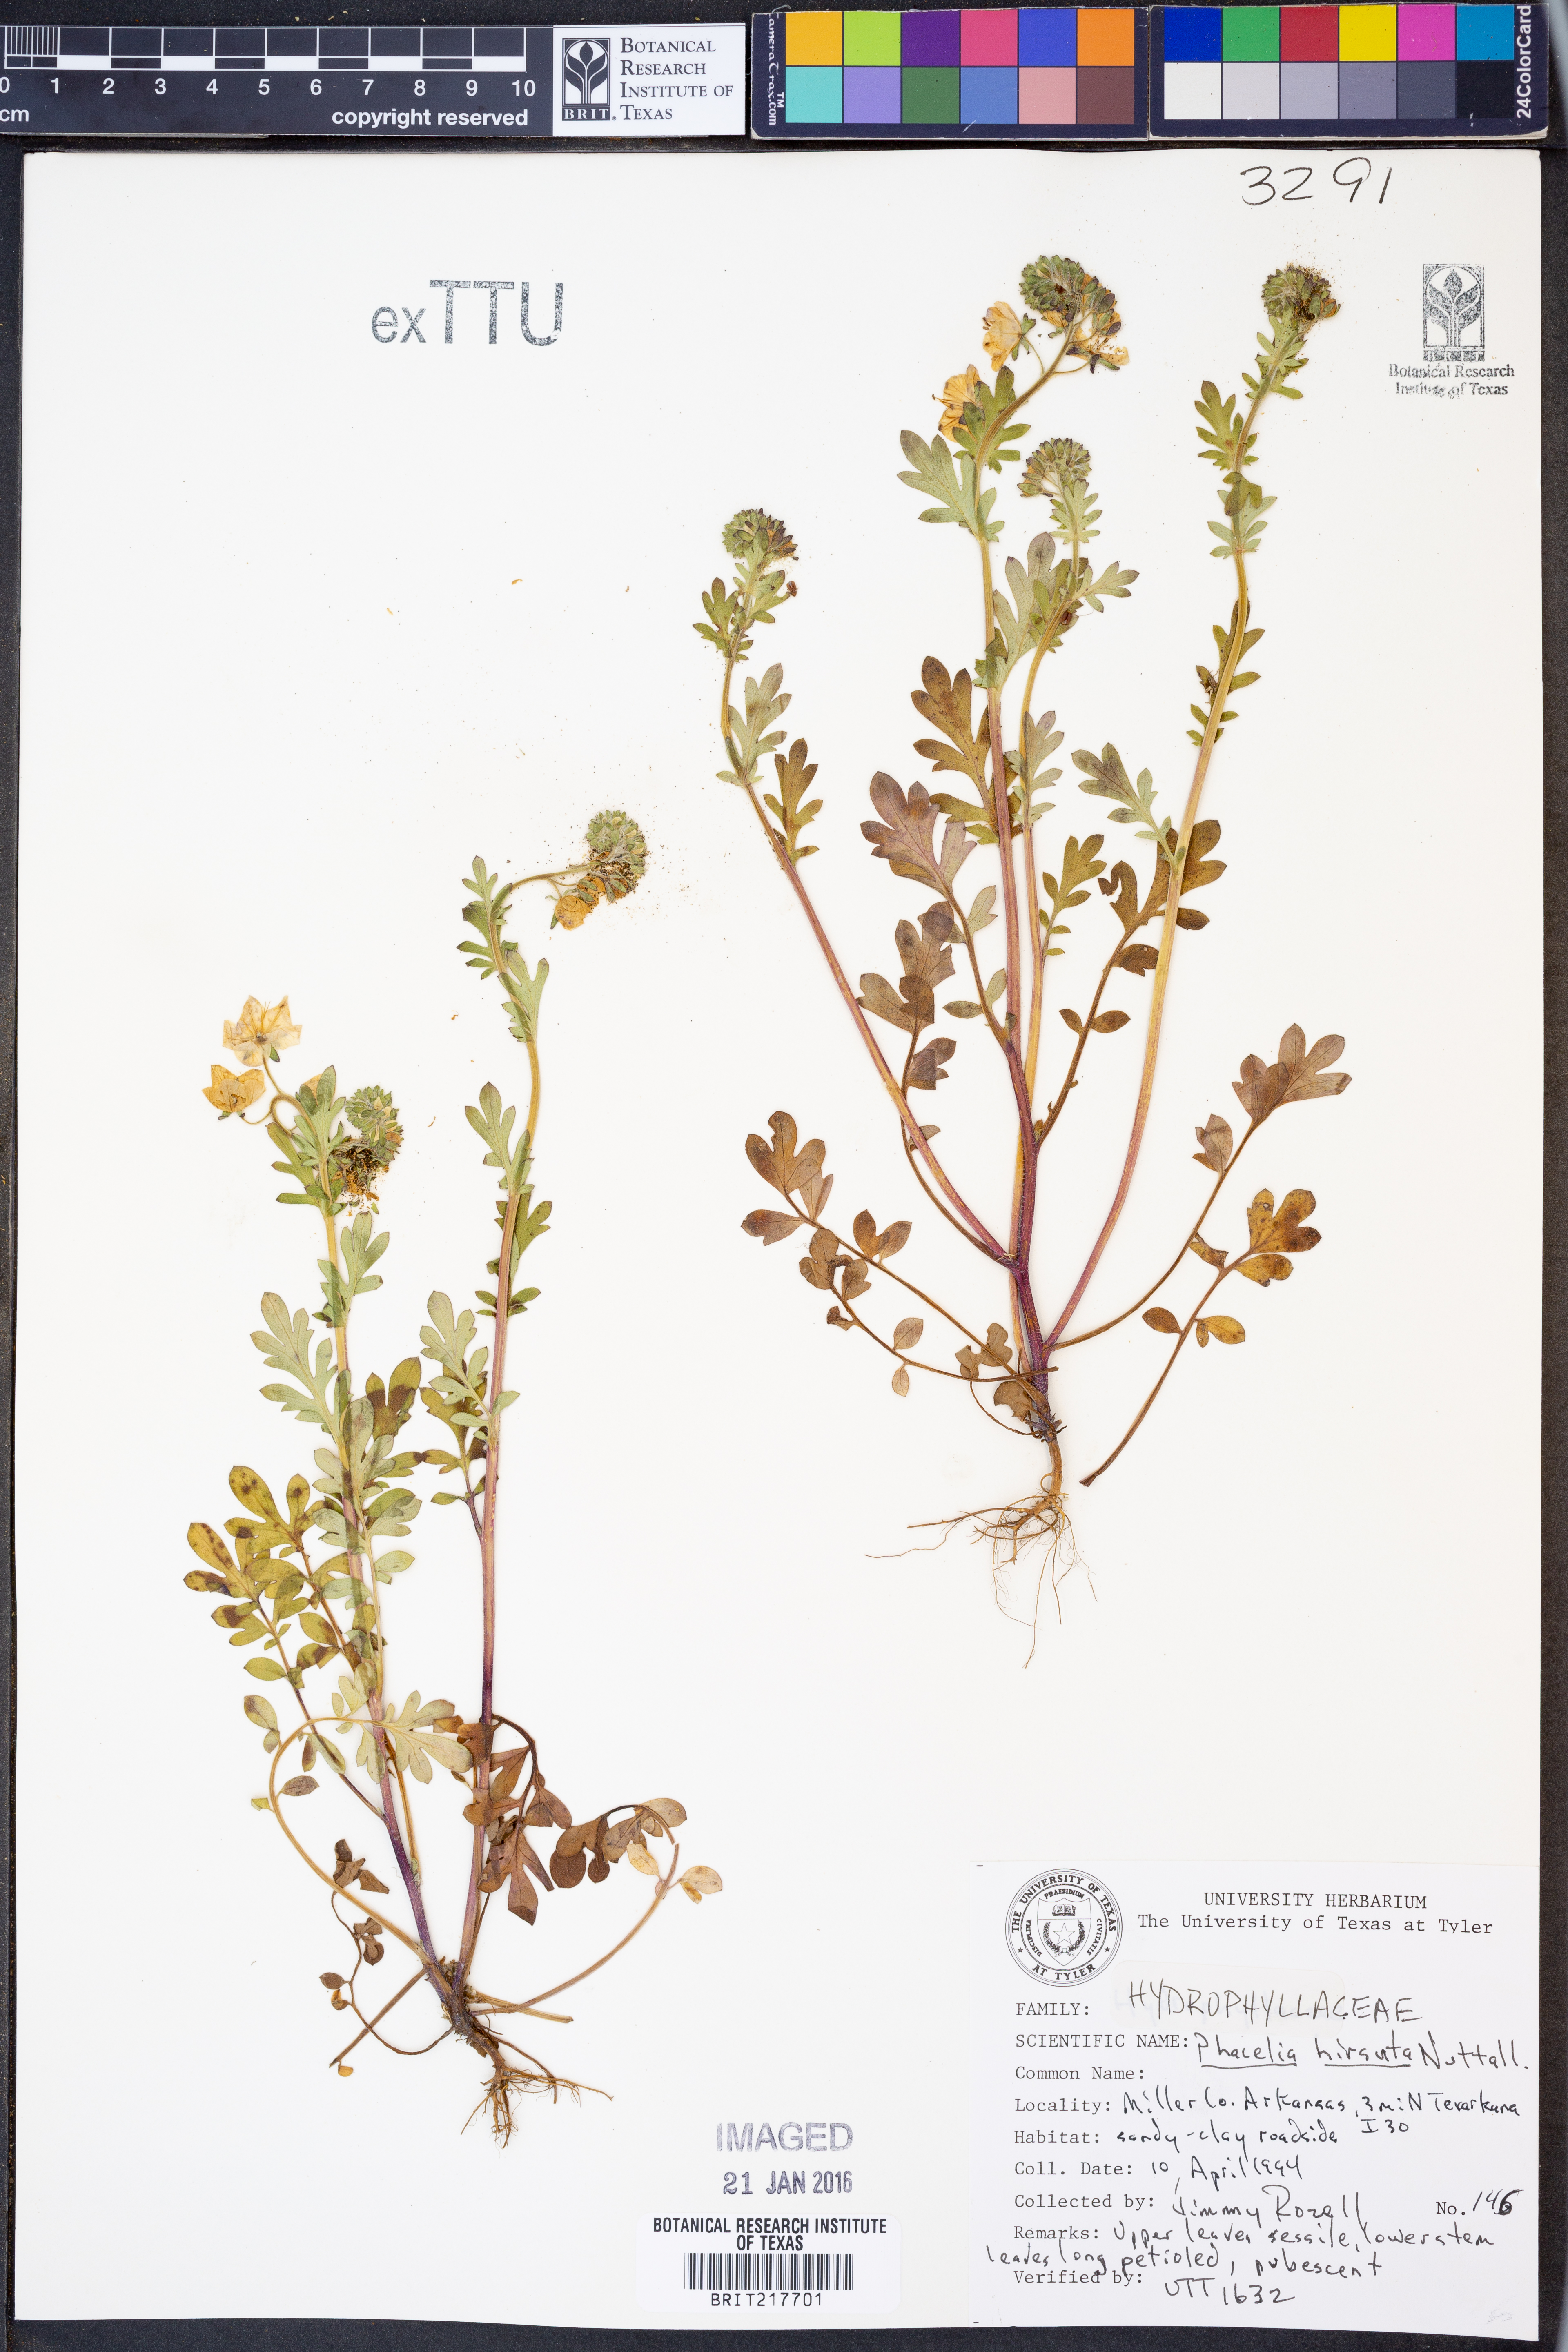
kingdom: Plantae
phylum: Tracheophyta
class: Magnoliopsida
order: Boraginales
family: Hydrophyllaceae
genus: Phacelia
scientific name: Phacelia hirsuta
